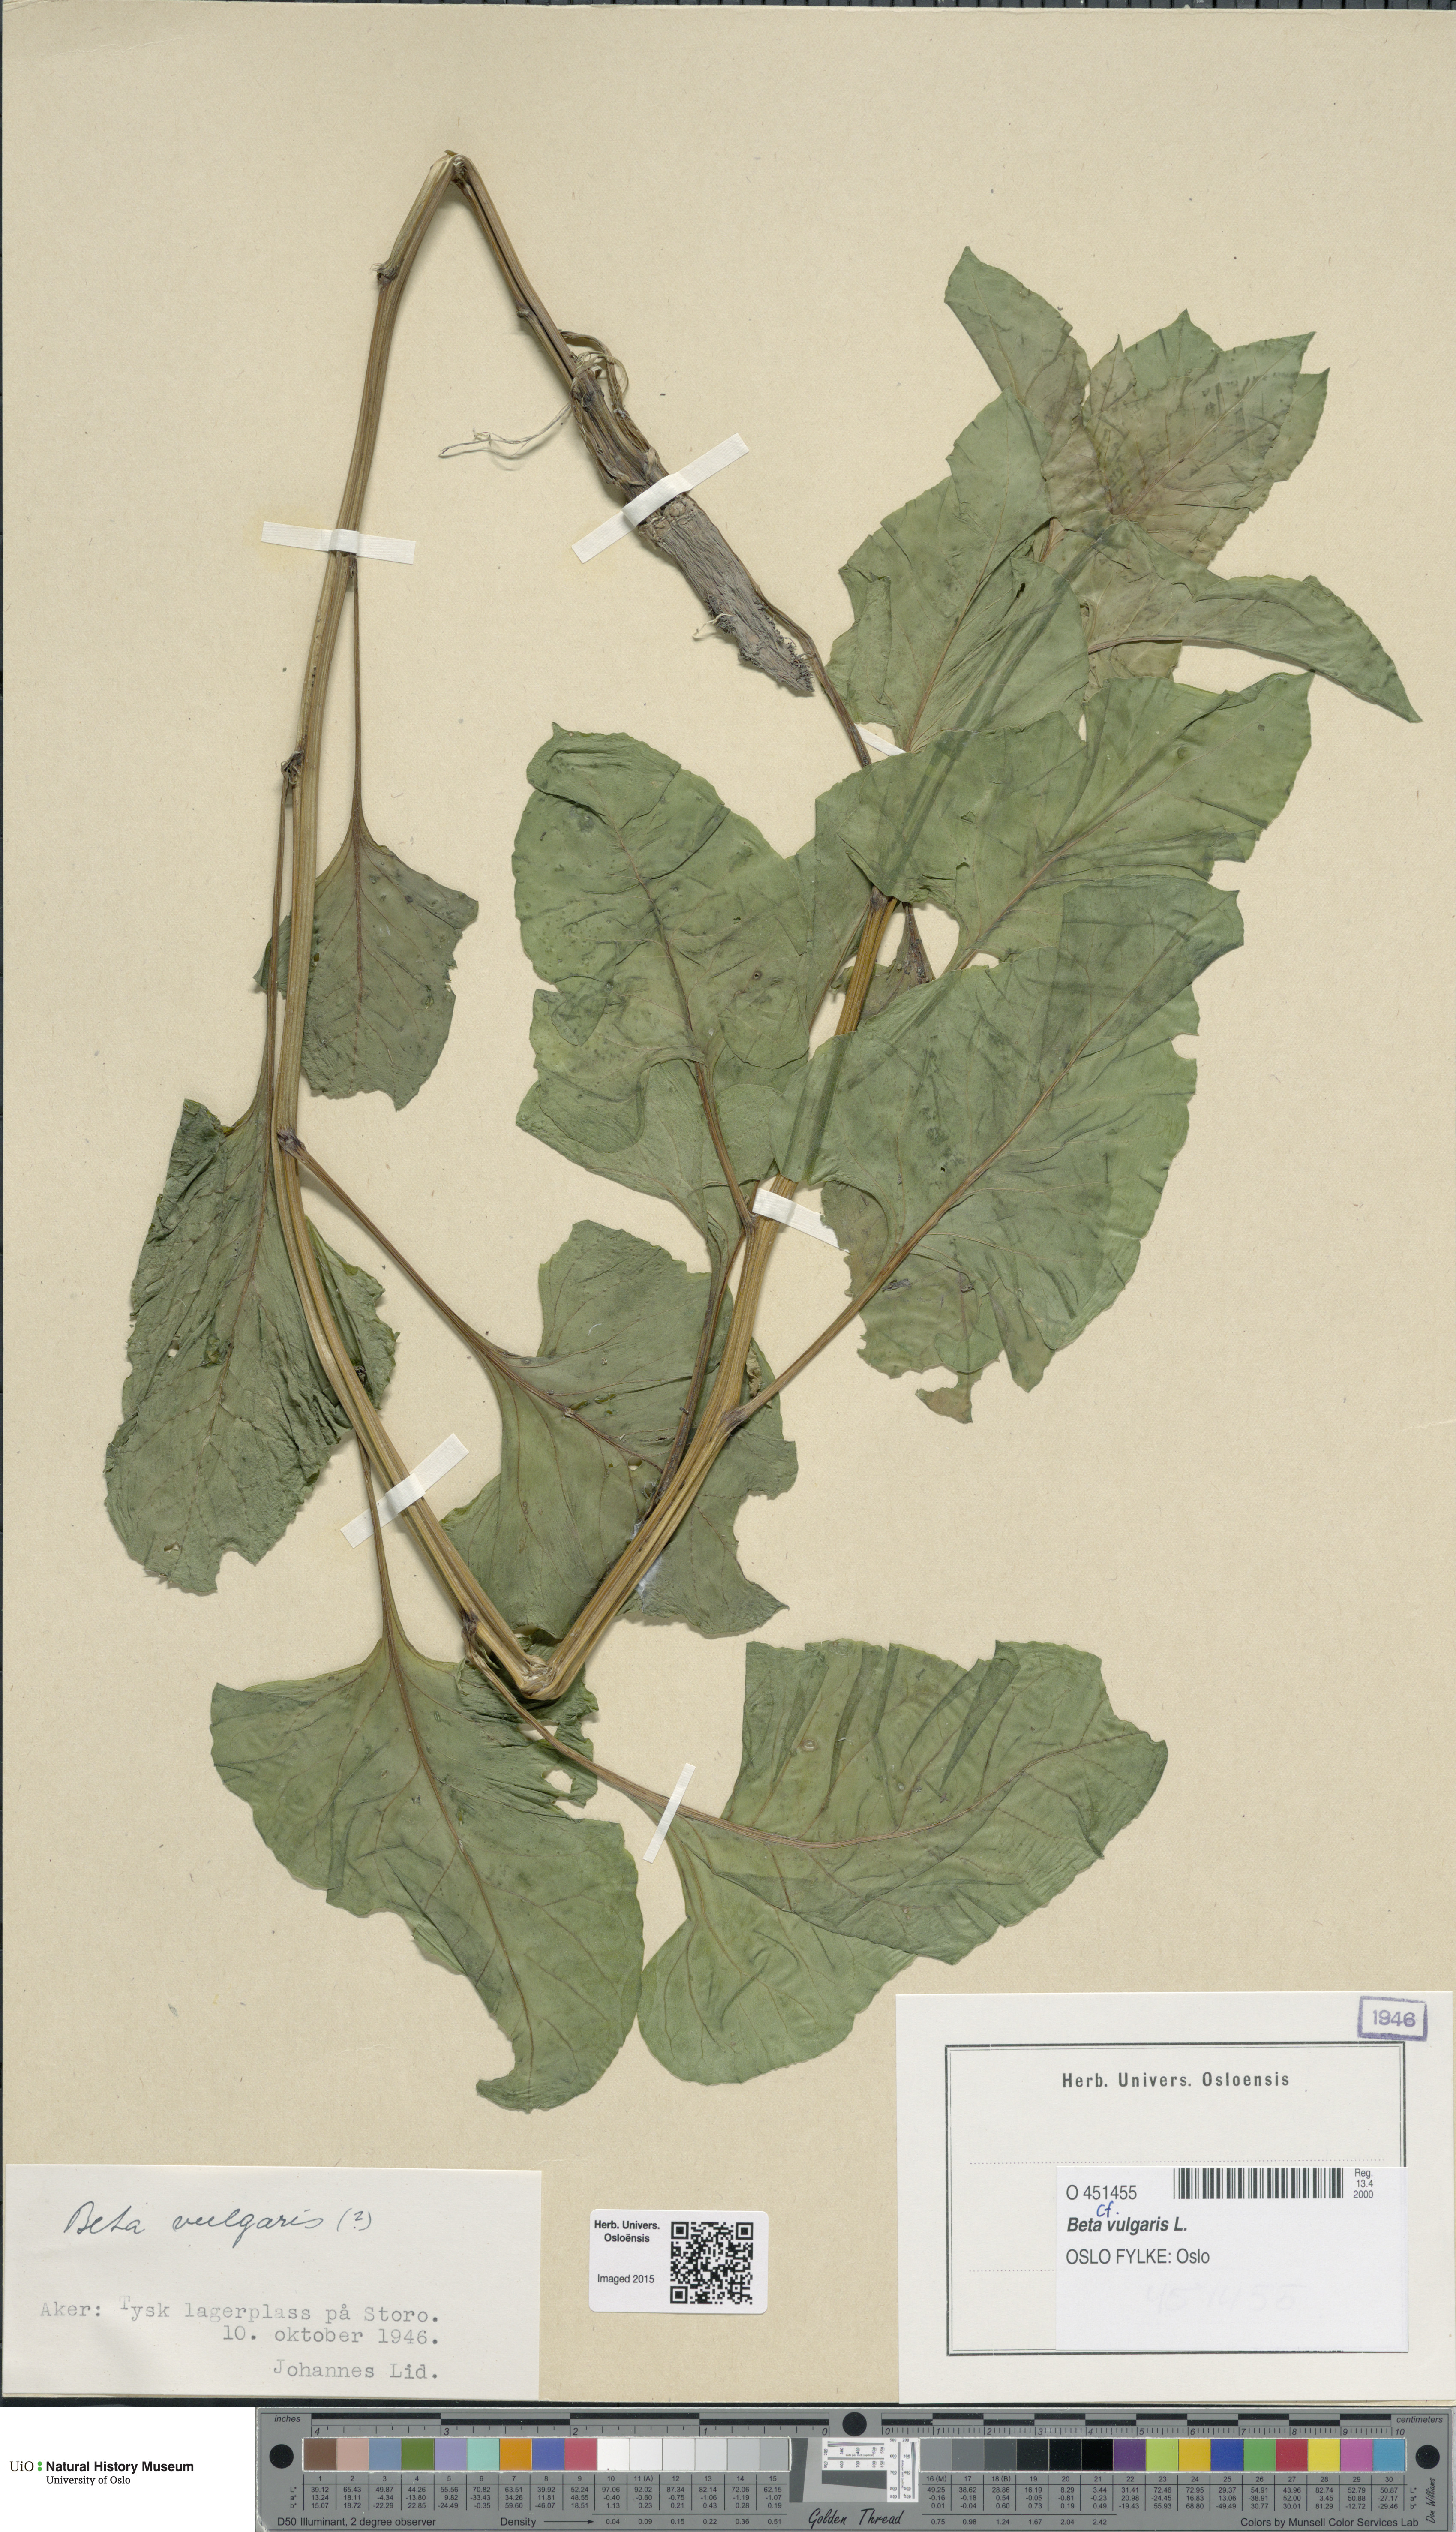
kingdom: Plantae
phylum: Tracheophyta
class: Magnoliopsida
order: Caryophyllales
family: Amaranthaceae
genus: Beta
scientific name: Beta vulgaris
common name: Beet
